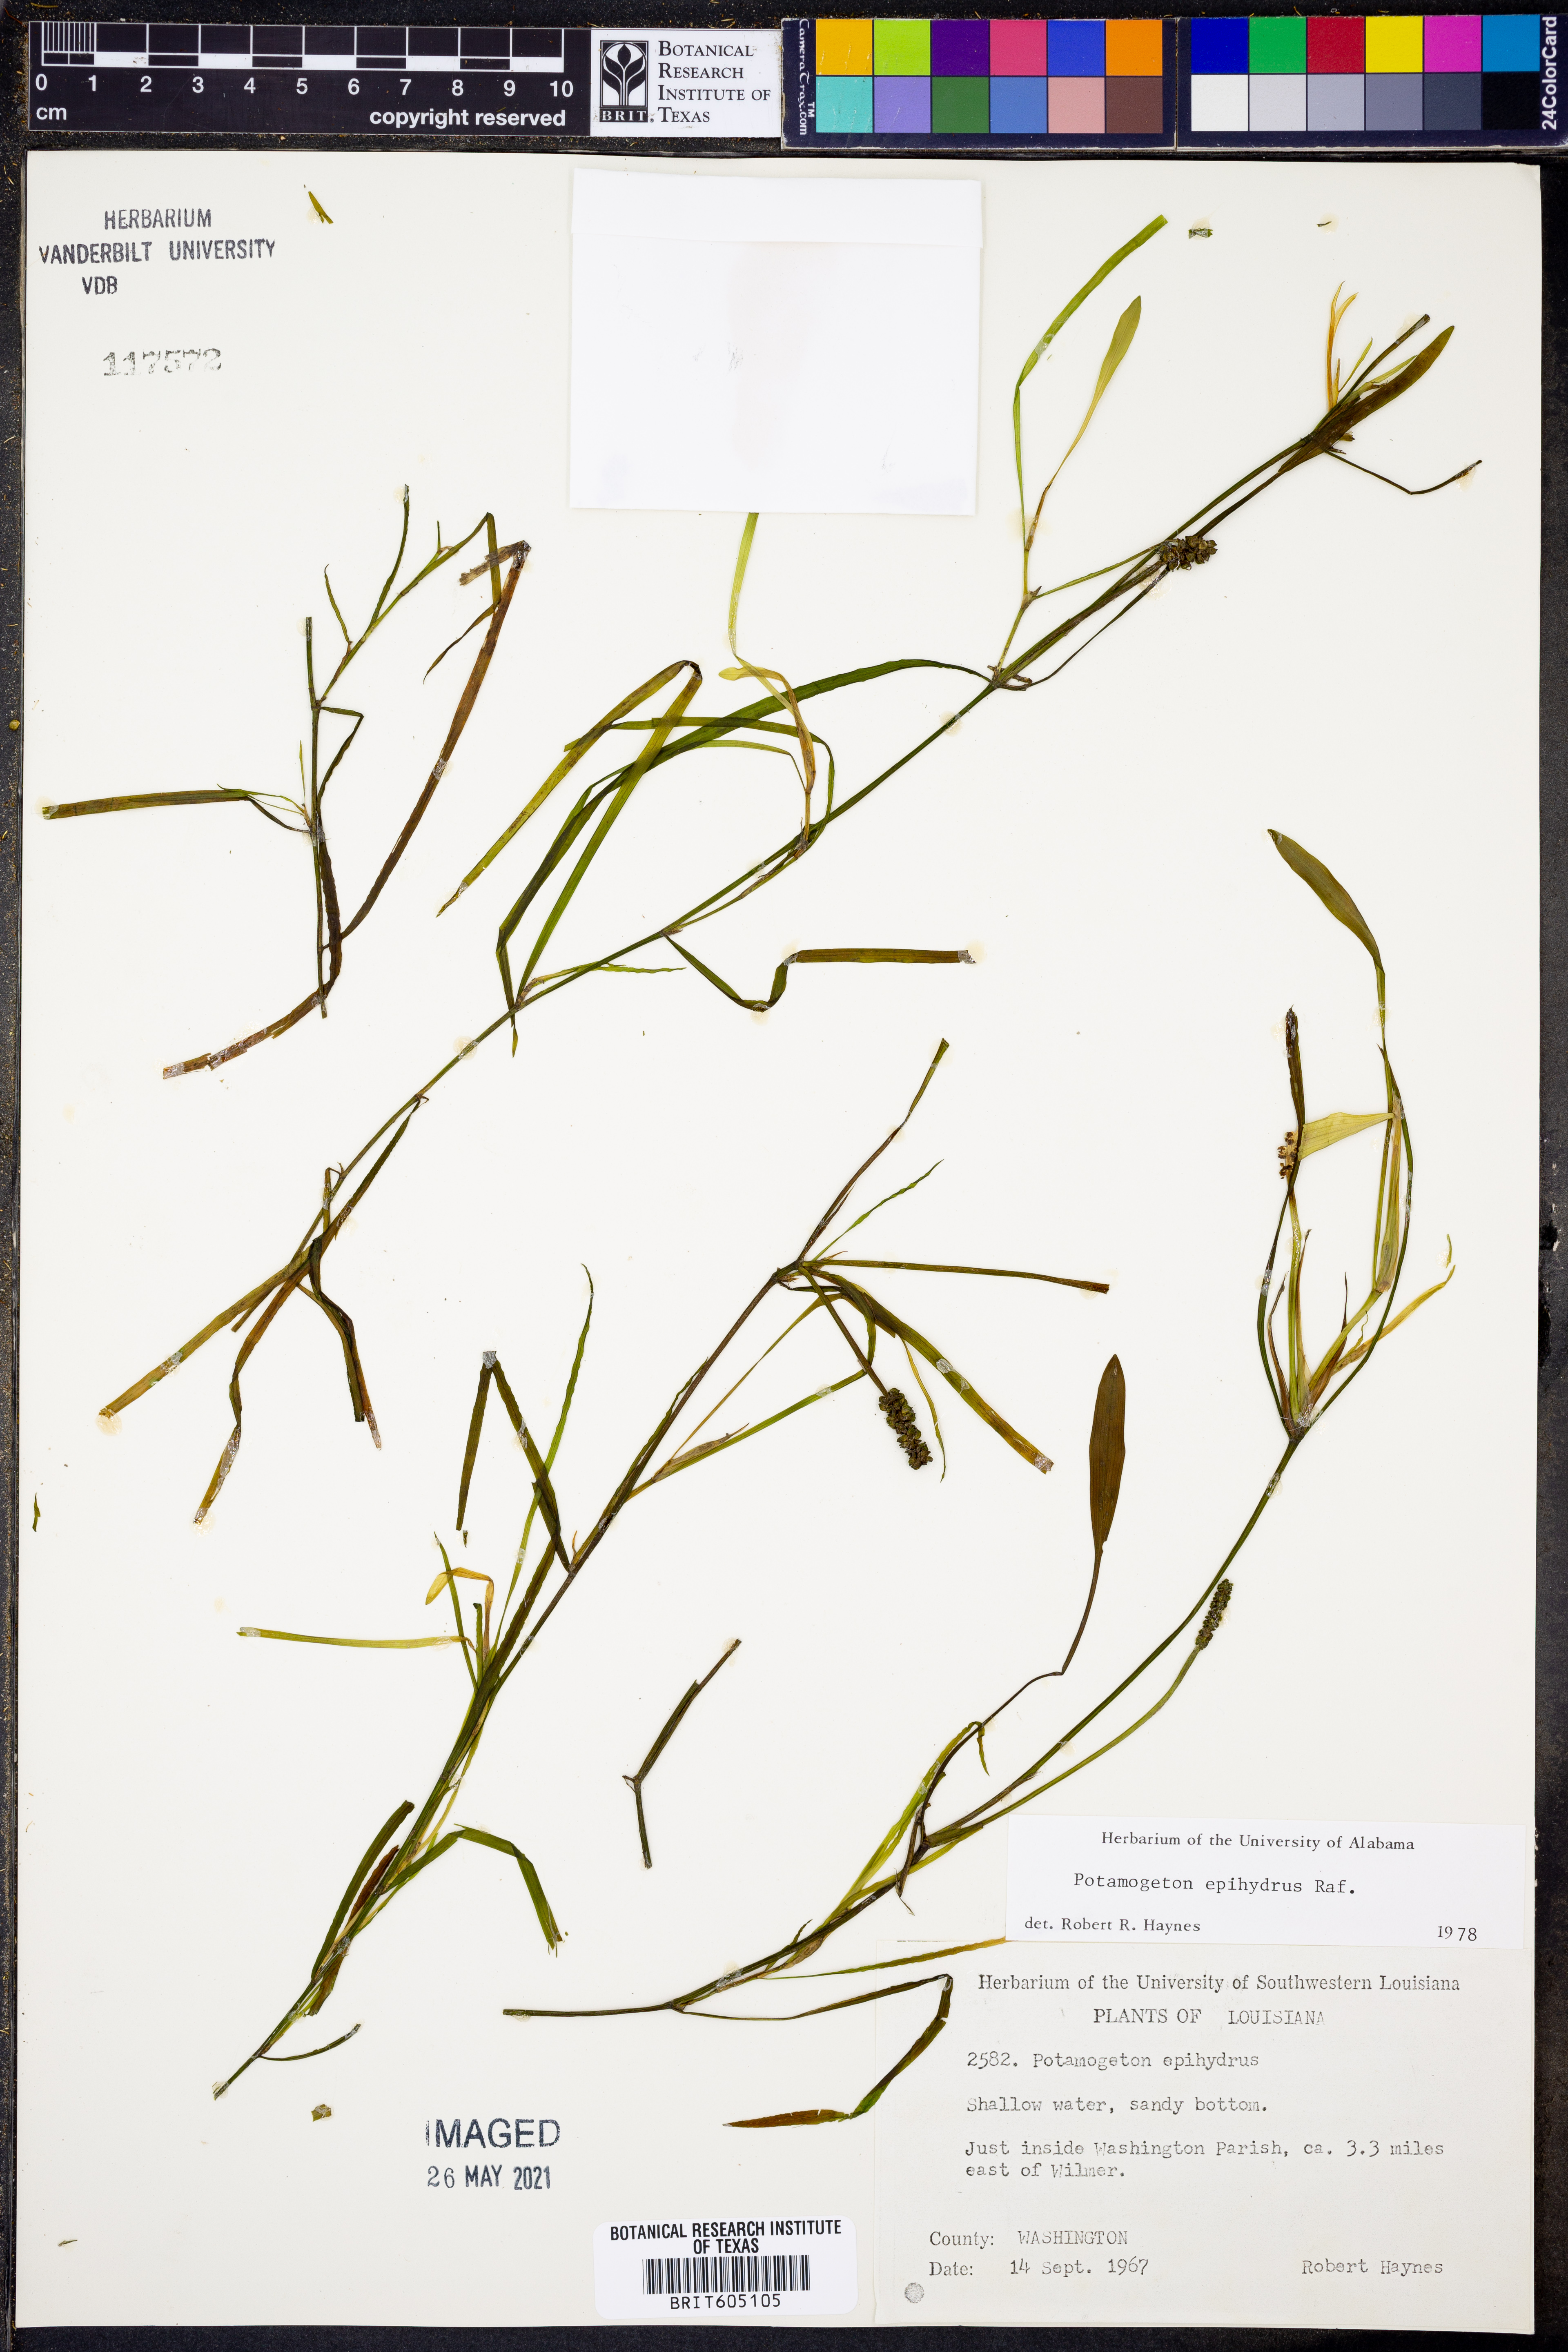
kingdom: Plantae
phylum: Tracheophyta
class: Liliopsida
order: Alismatales
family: Potamogetonaceae
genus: Potamogeton
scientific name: Potamogeton epihydrus
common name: American pondweed
